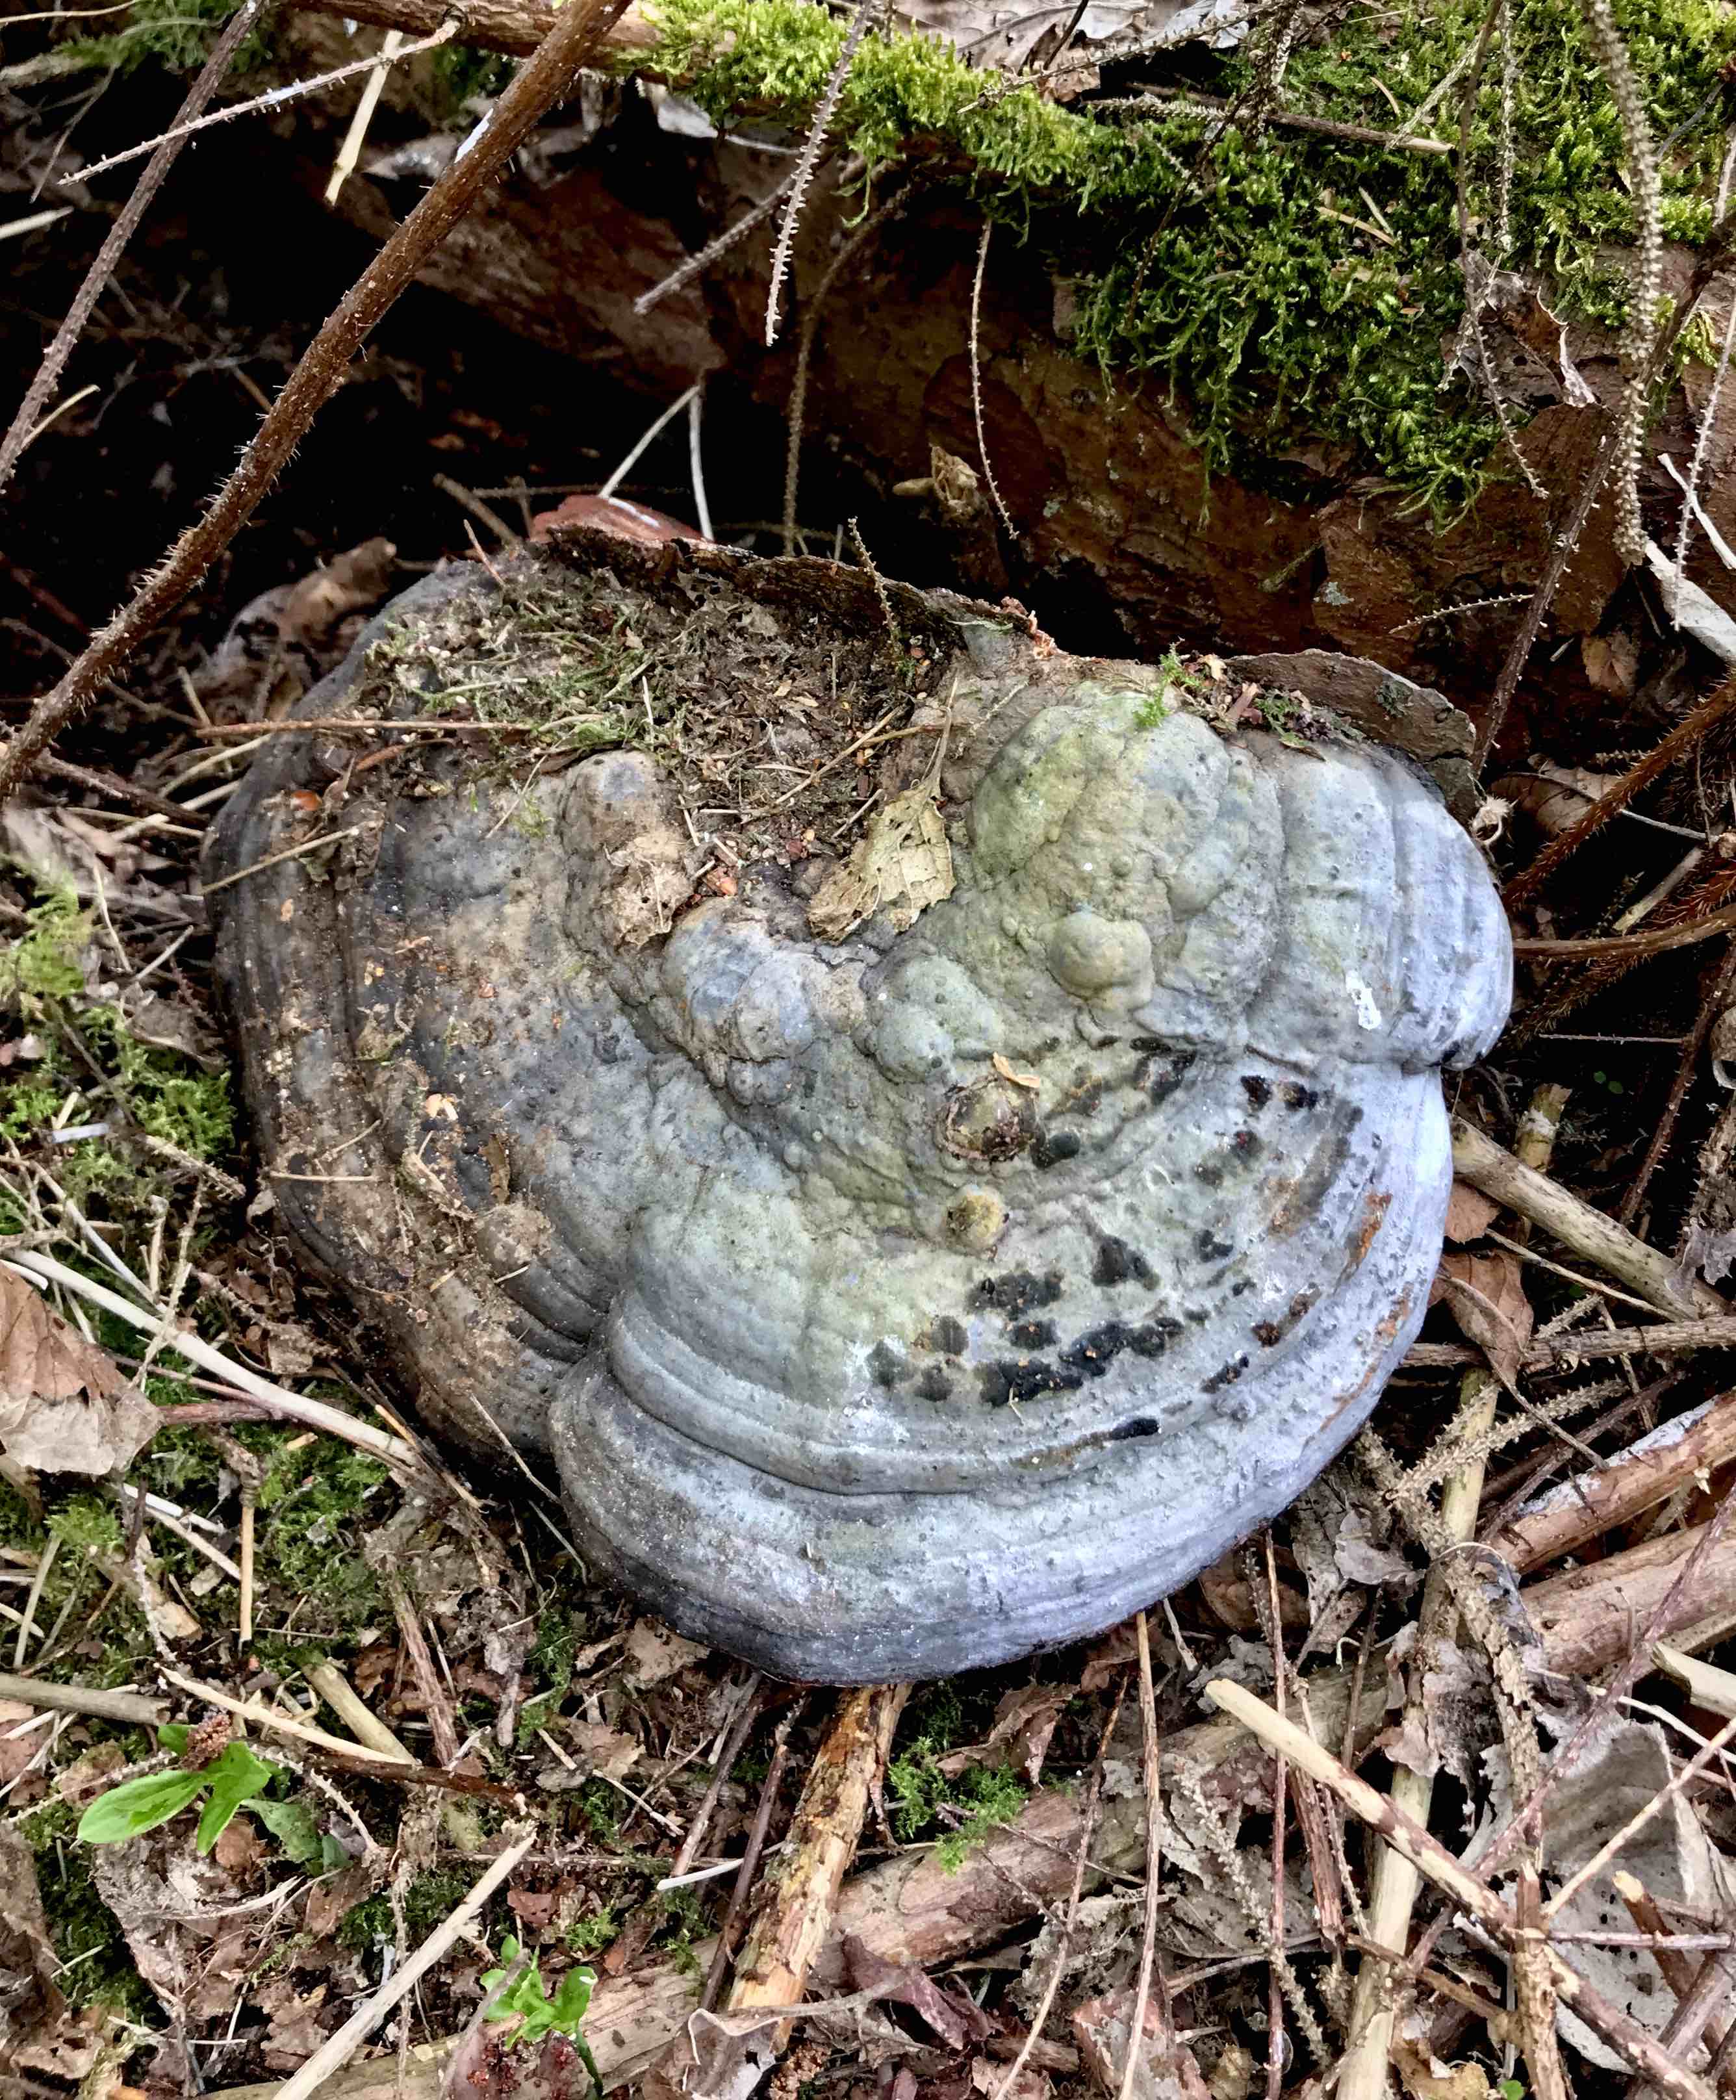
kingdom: Fungi
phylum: Basidiomycota
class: Agaricomycetes
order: Polyporales
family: Fomitopsidaceae
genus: Fomitopsis
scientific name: Fomitopsis pinicola
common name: randbæltet hovporesvamp
